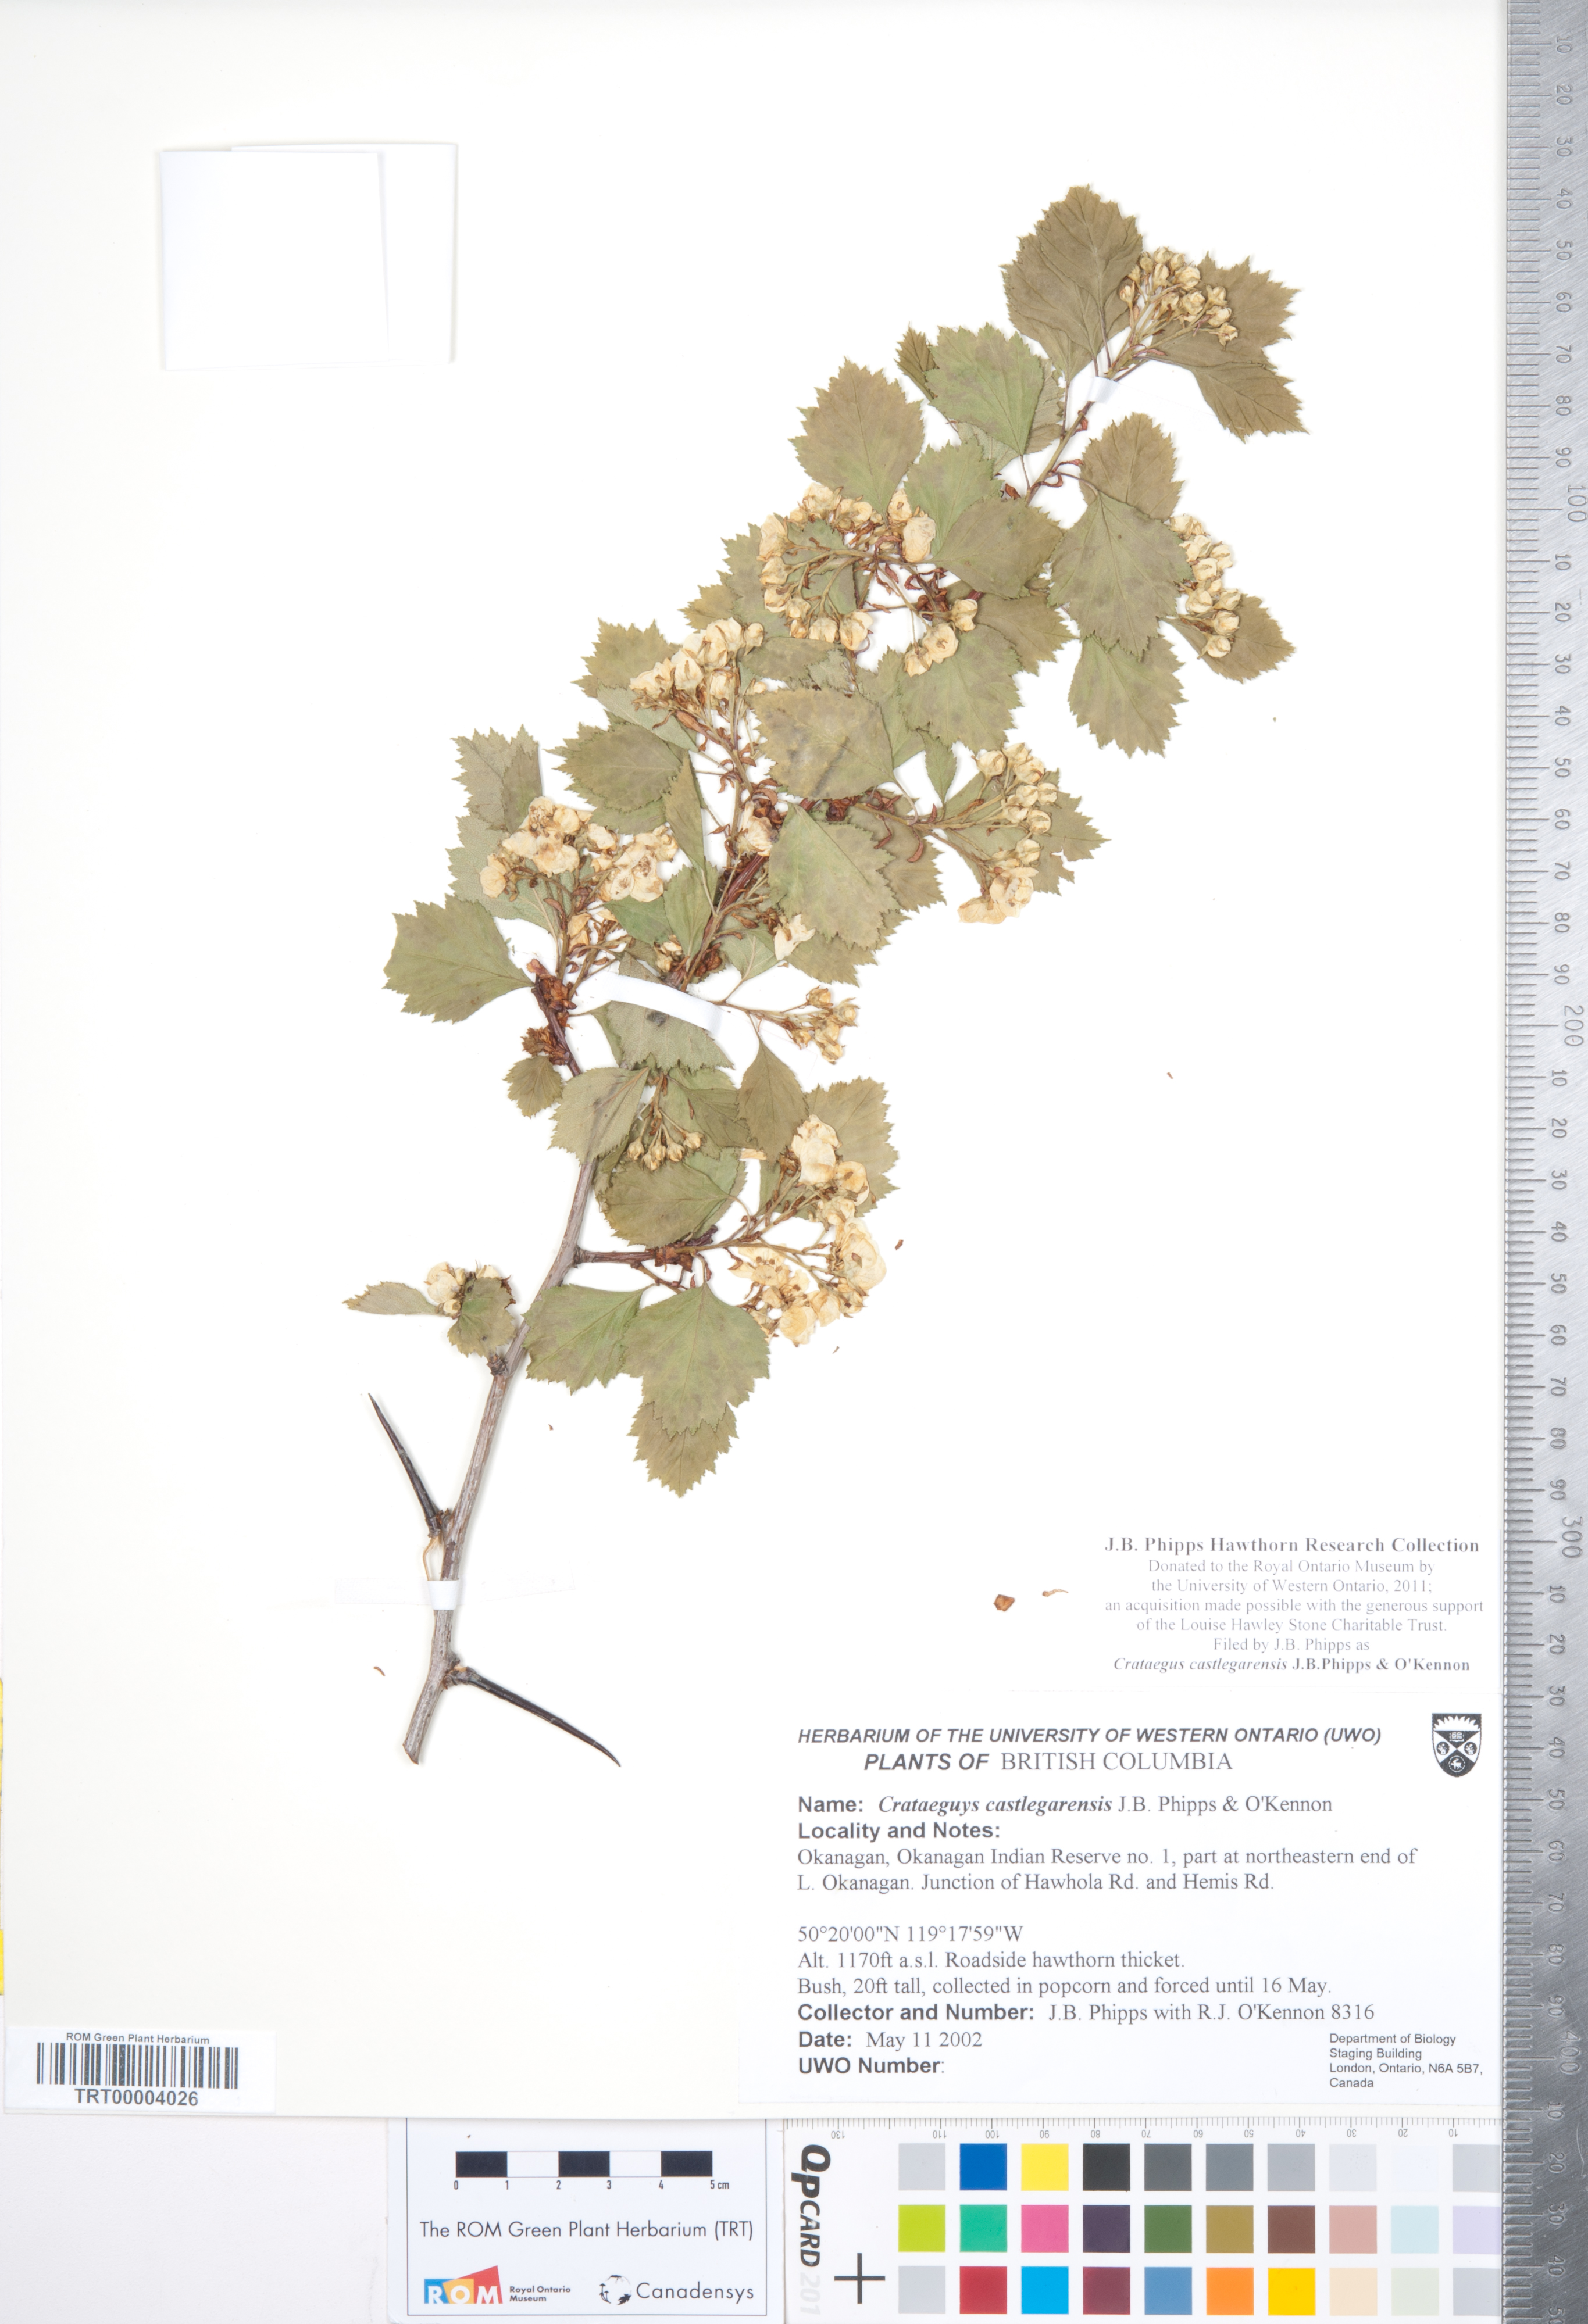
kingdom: Plantae
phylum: Tracheophyta
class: Magnoliopsida
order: Rosales
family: Rosaceae
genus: Crataegus
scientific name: Crataegus castlegarensis
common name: Castlegar hawthorn
